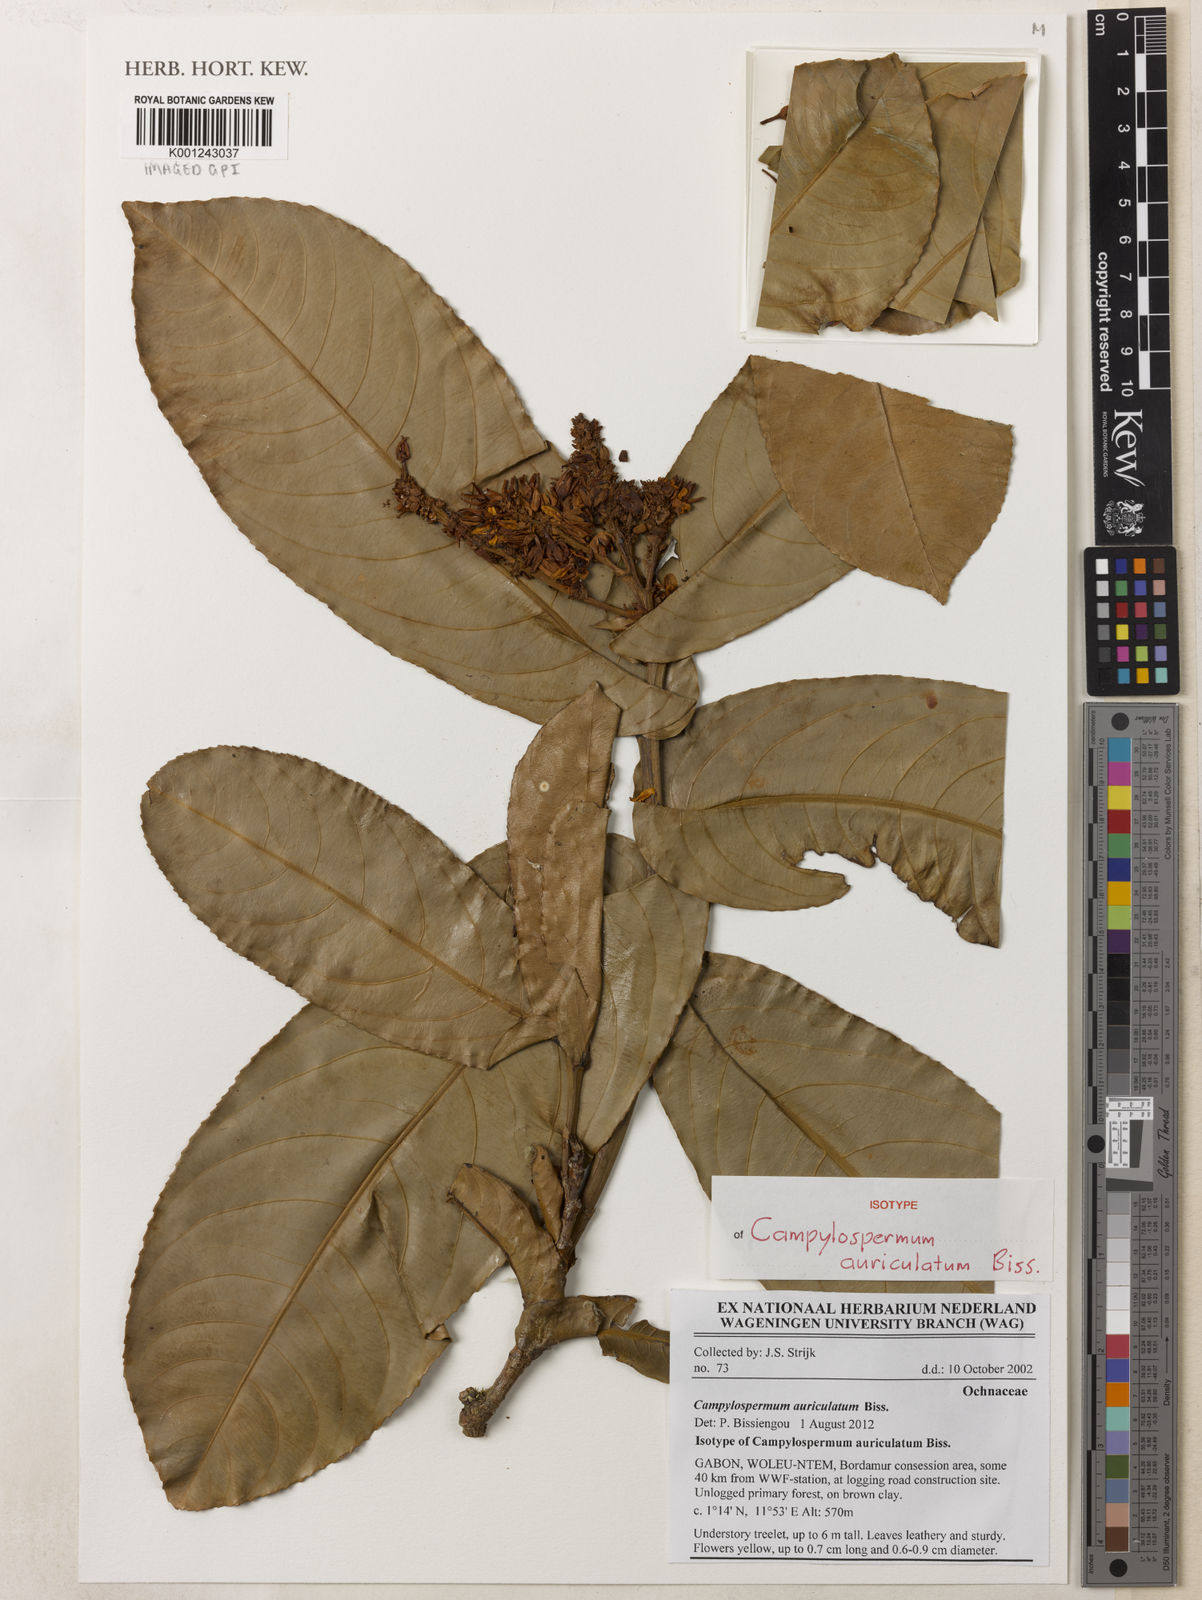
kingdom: Plantae
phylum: Tracheophyta
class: Magnoliopsida
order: Malpighiales
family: Ochnaceae
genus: Campylospermum
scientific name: Campylospermum auriculatum
